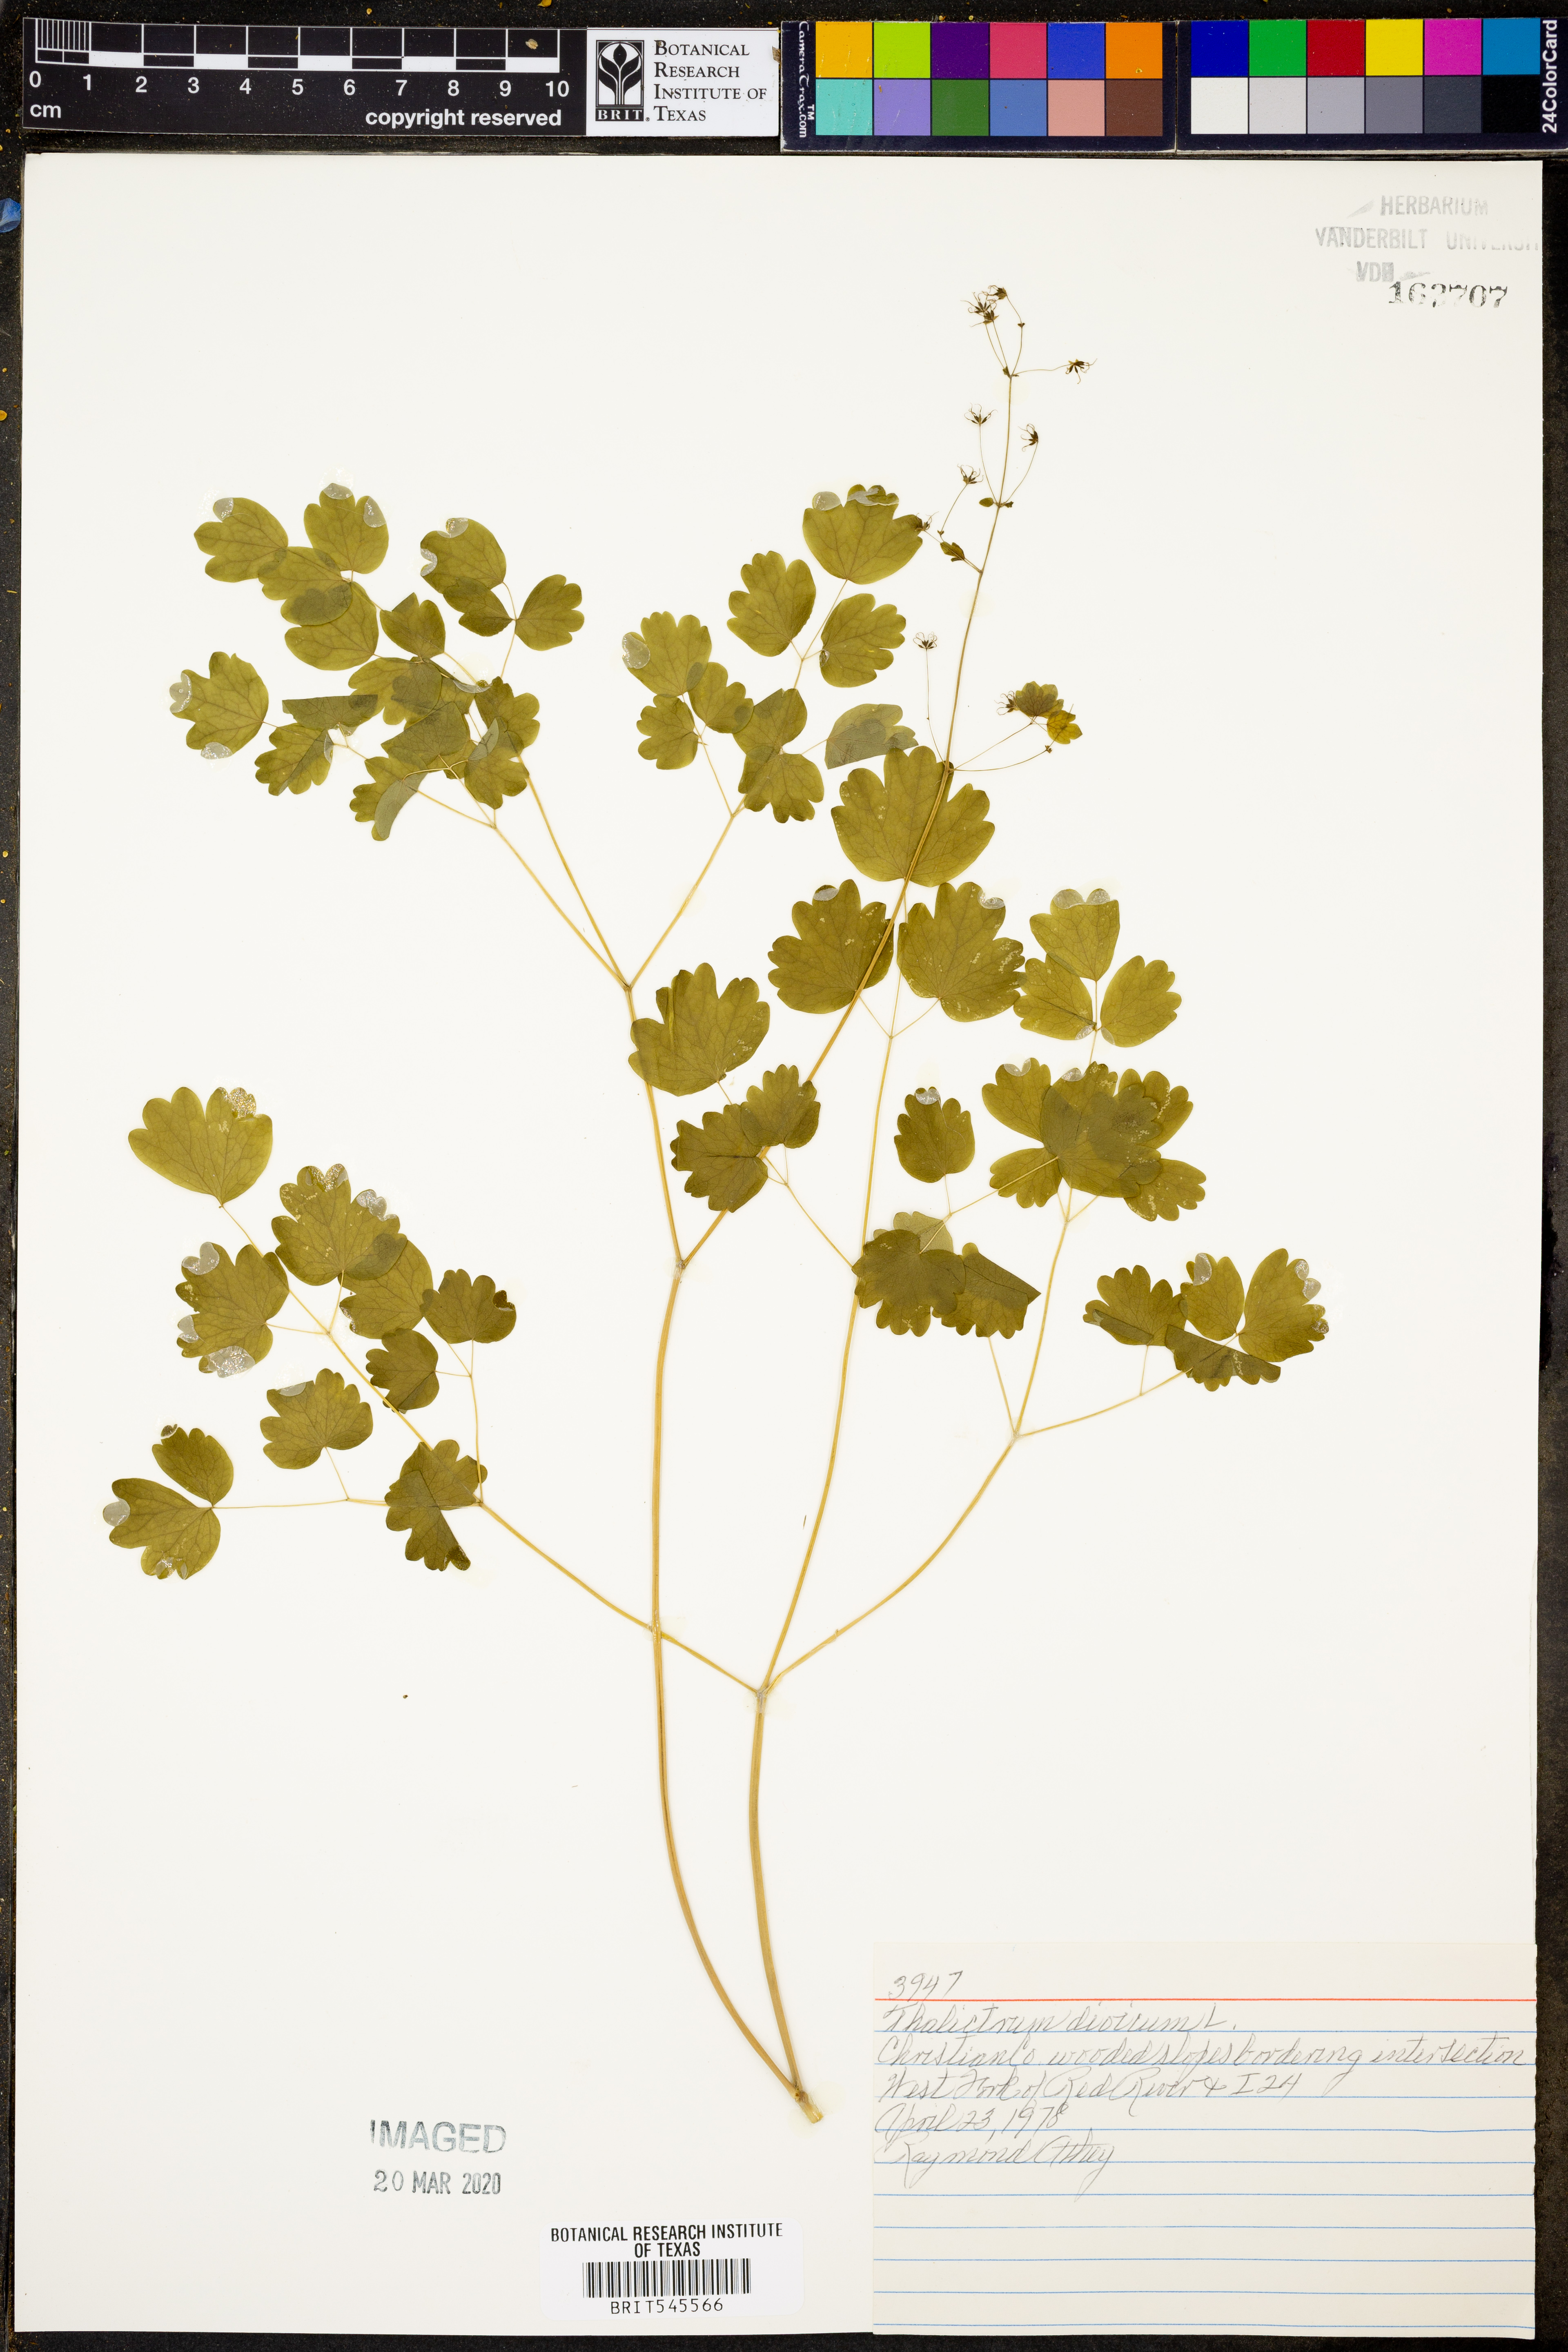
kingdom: Plantae
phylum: Tracheophyta
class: Magnoliopsida
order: Ranunculales
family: Ranunculaceae
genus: Thalictrum
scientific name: Thalictrum dioicum
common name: Early meadow-rue
